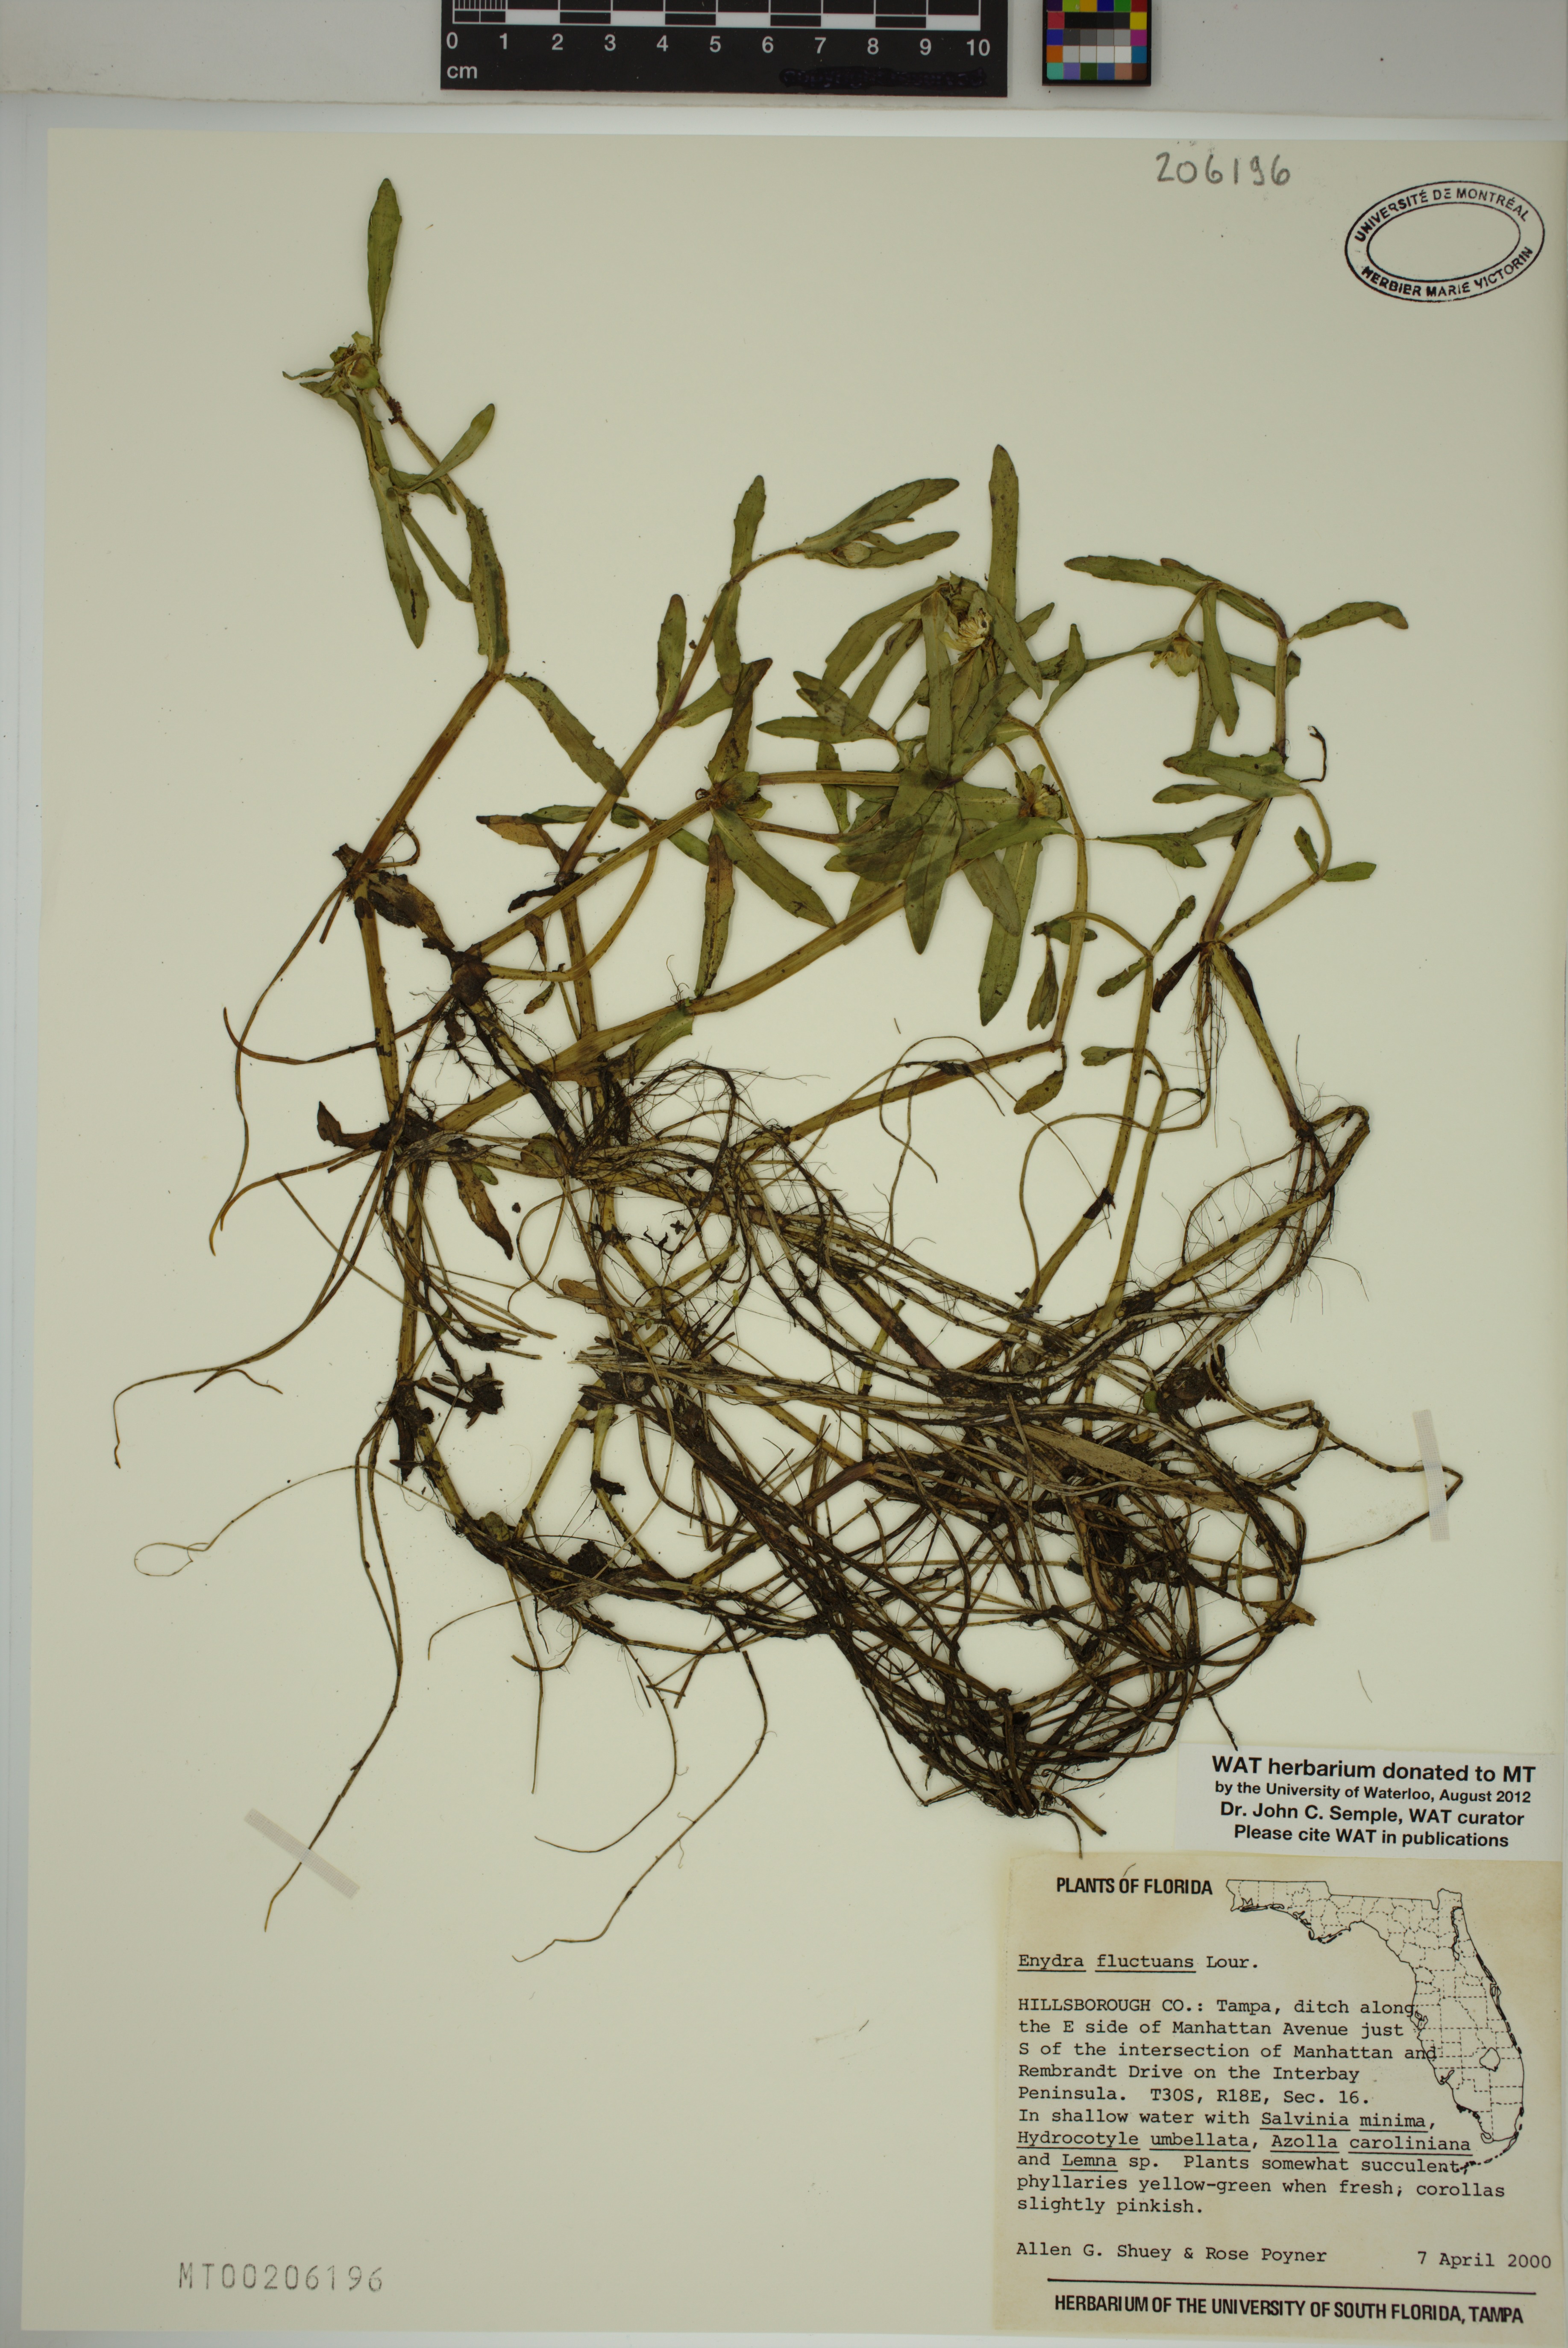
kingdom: Plantae
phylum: Tracheophyta
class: Magnoliopsida
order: Asterales
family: Asteraceae
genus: Enydra
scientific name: Enydra fluctuans
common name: Buffalo spinach
